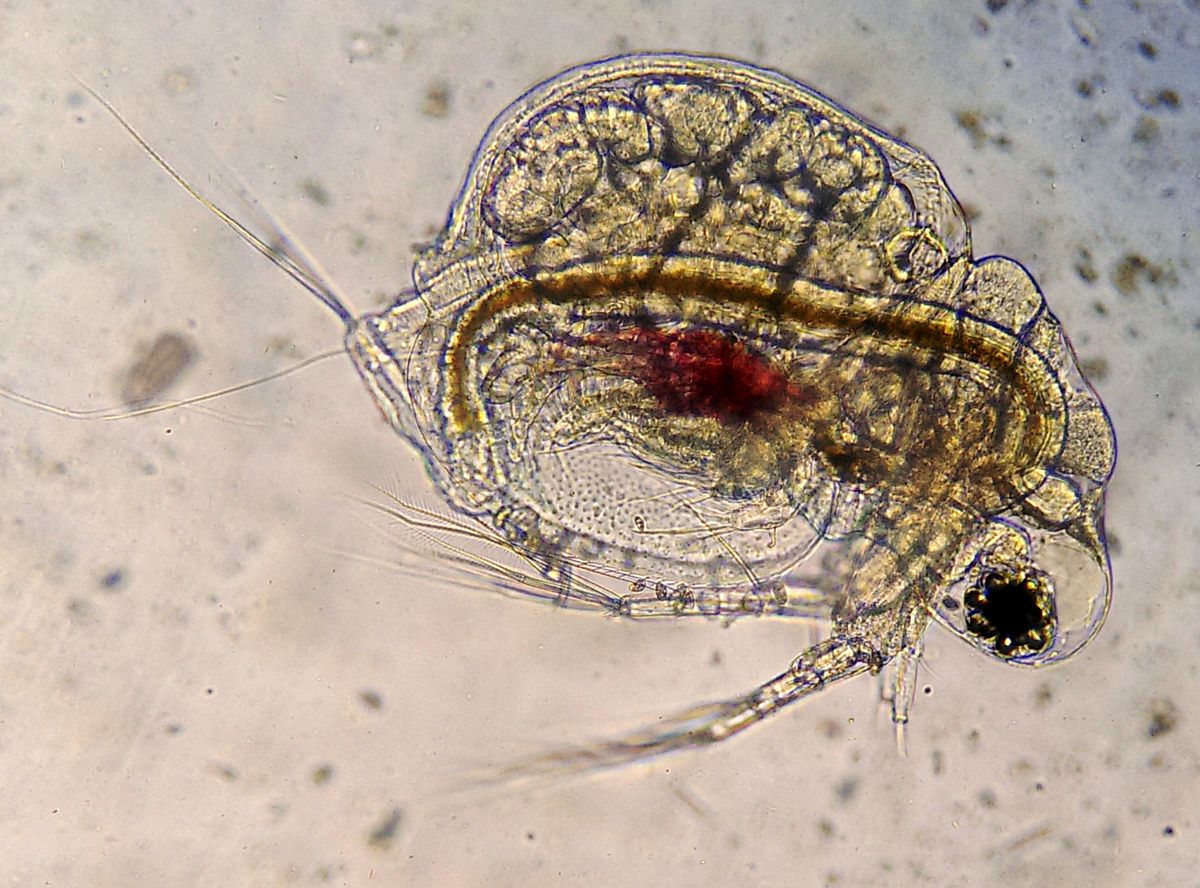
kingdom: Animalia
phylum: Arthropoda
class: Branchiopoda
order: Diplostraca
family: Moinidae
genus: Moina
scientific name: Moina micrura
